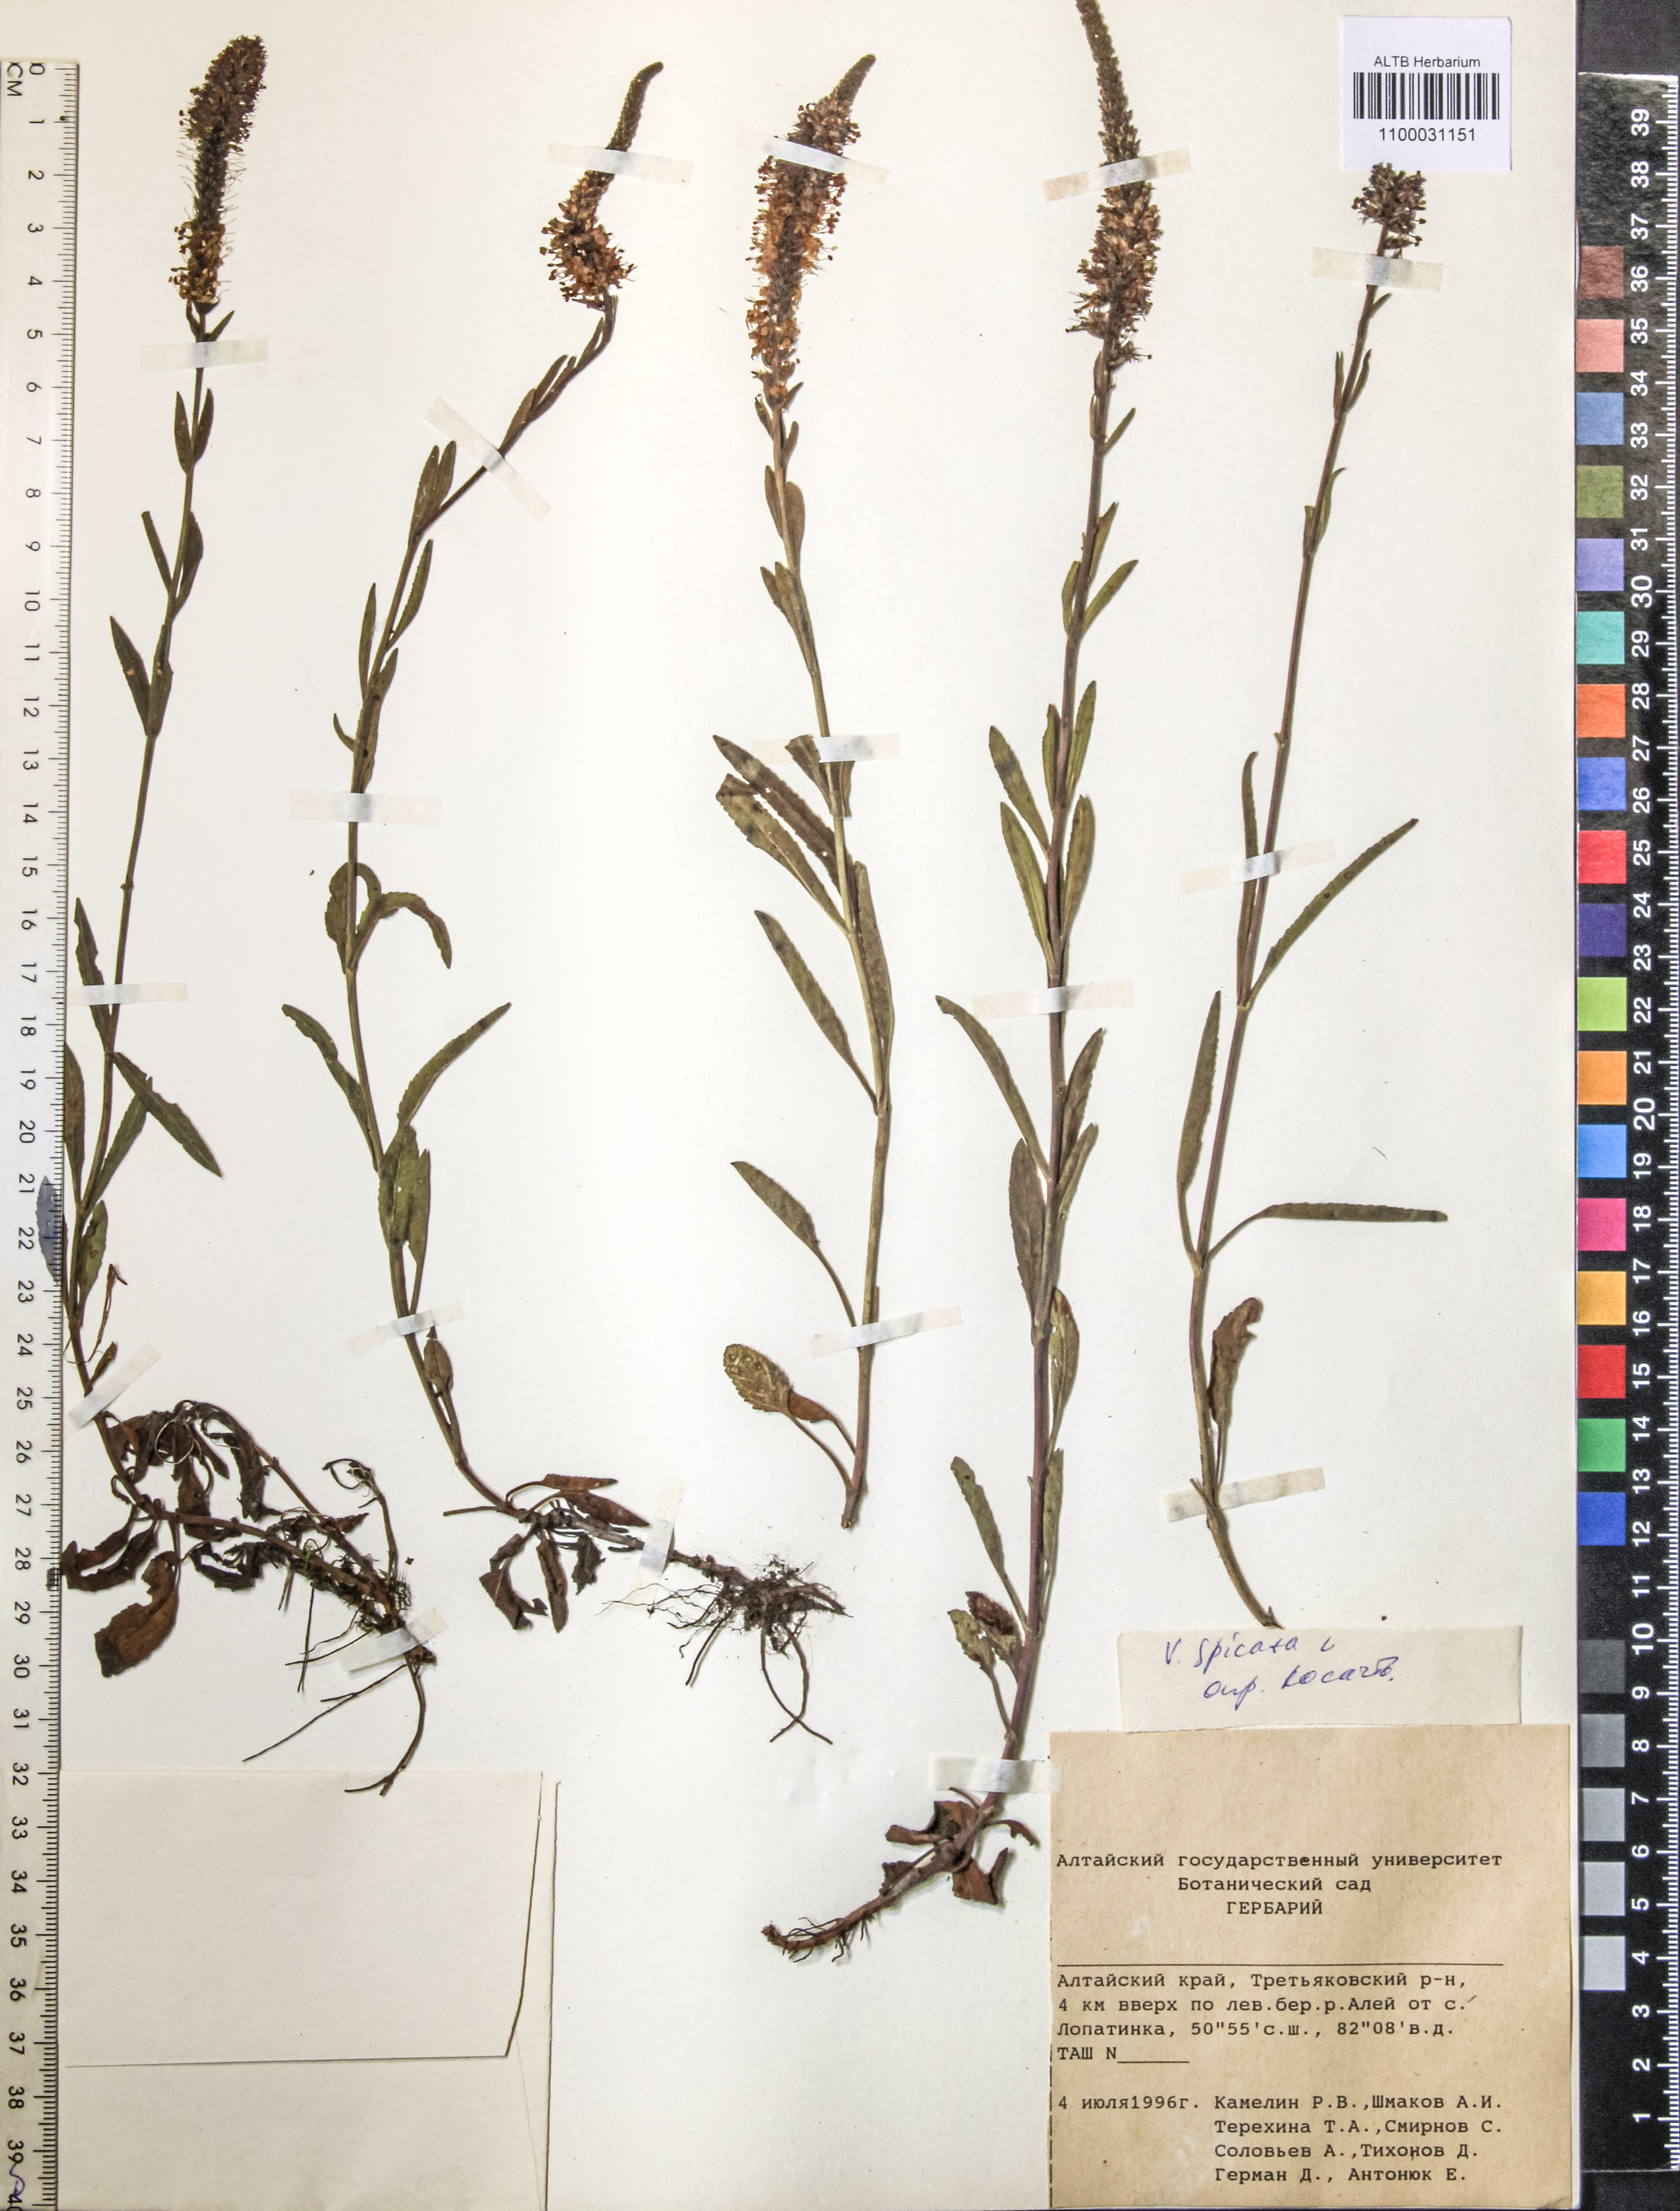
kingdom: Plantae
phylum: Tracheophyta
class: Magnoliopsida
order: Lamiales
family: Plantaginaceae
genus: Veronica
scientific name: Veronica spicata
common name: Spiked speedwell
